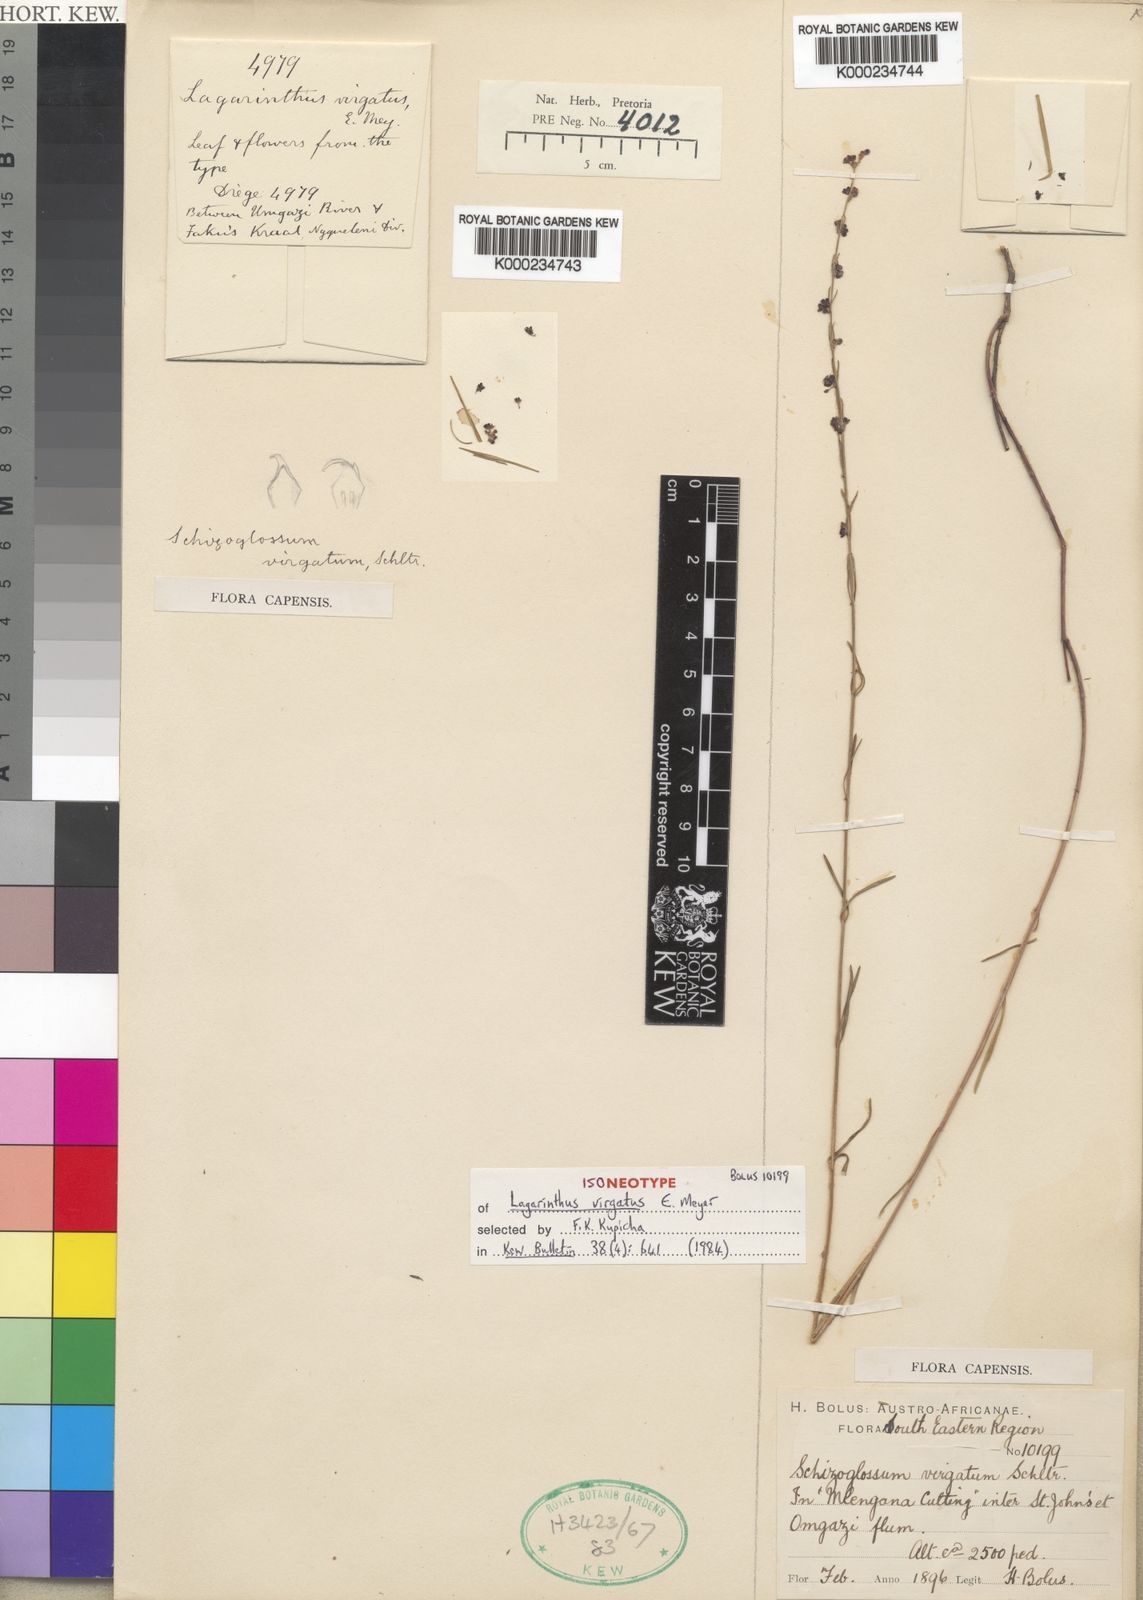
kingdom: Plantae
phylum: Tracheophyta
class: Magnoliopsida
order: Gentianales
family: Apocynaceae
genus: Aspidoglossum
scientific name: Aspidoglossum virgatum
